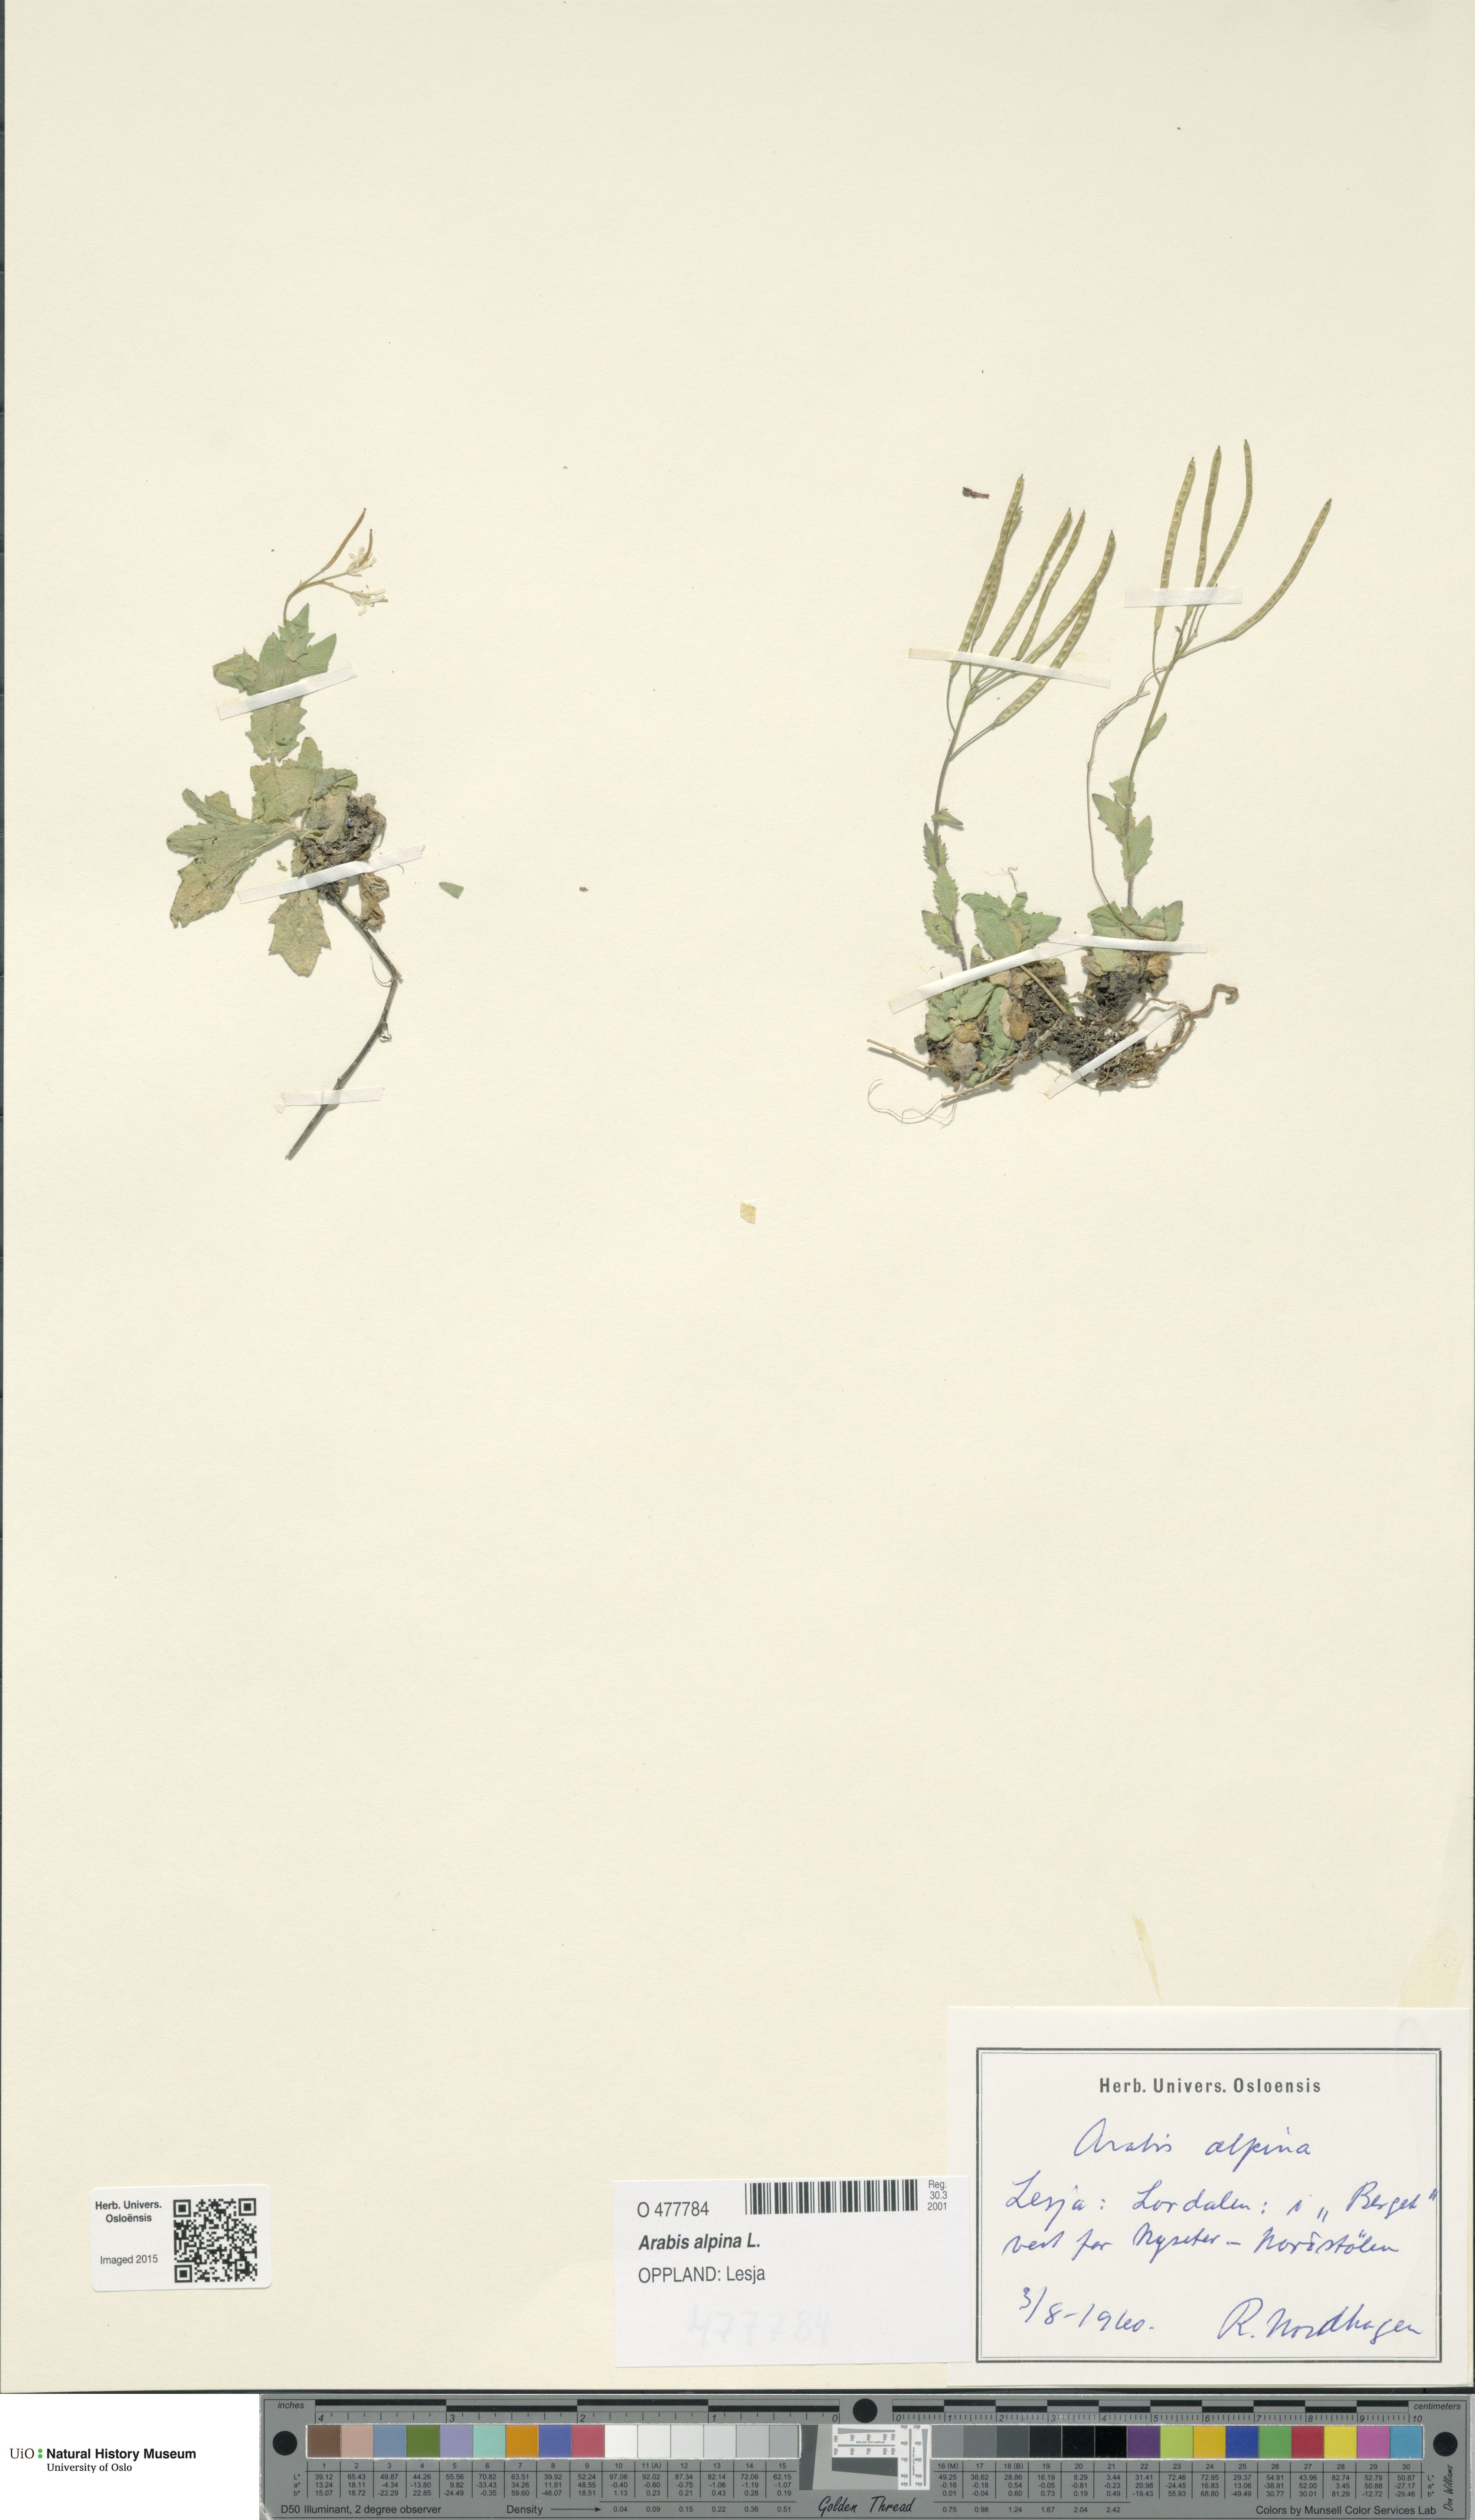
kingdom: Plantae
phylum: Tracheophyta
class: Magnoliopsida
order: Brassicales
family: Brassicaceae
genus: Arabis
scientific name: Arabis alpina
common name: Alpine rock-cress
